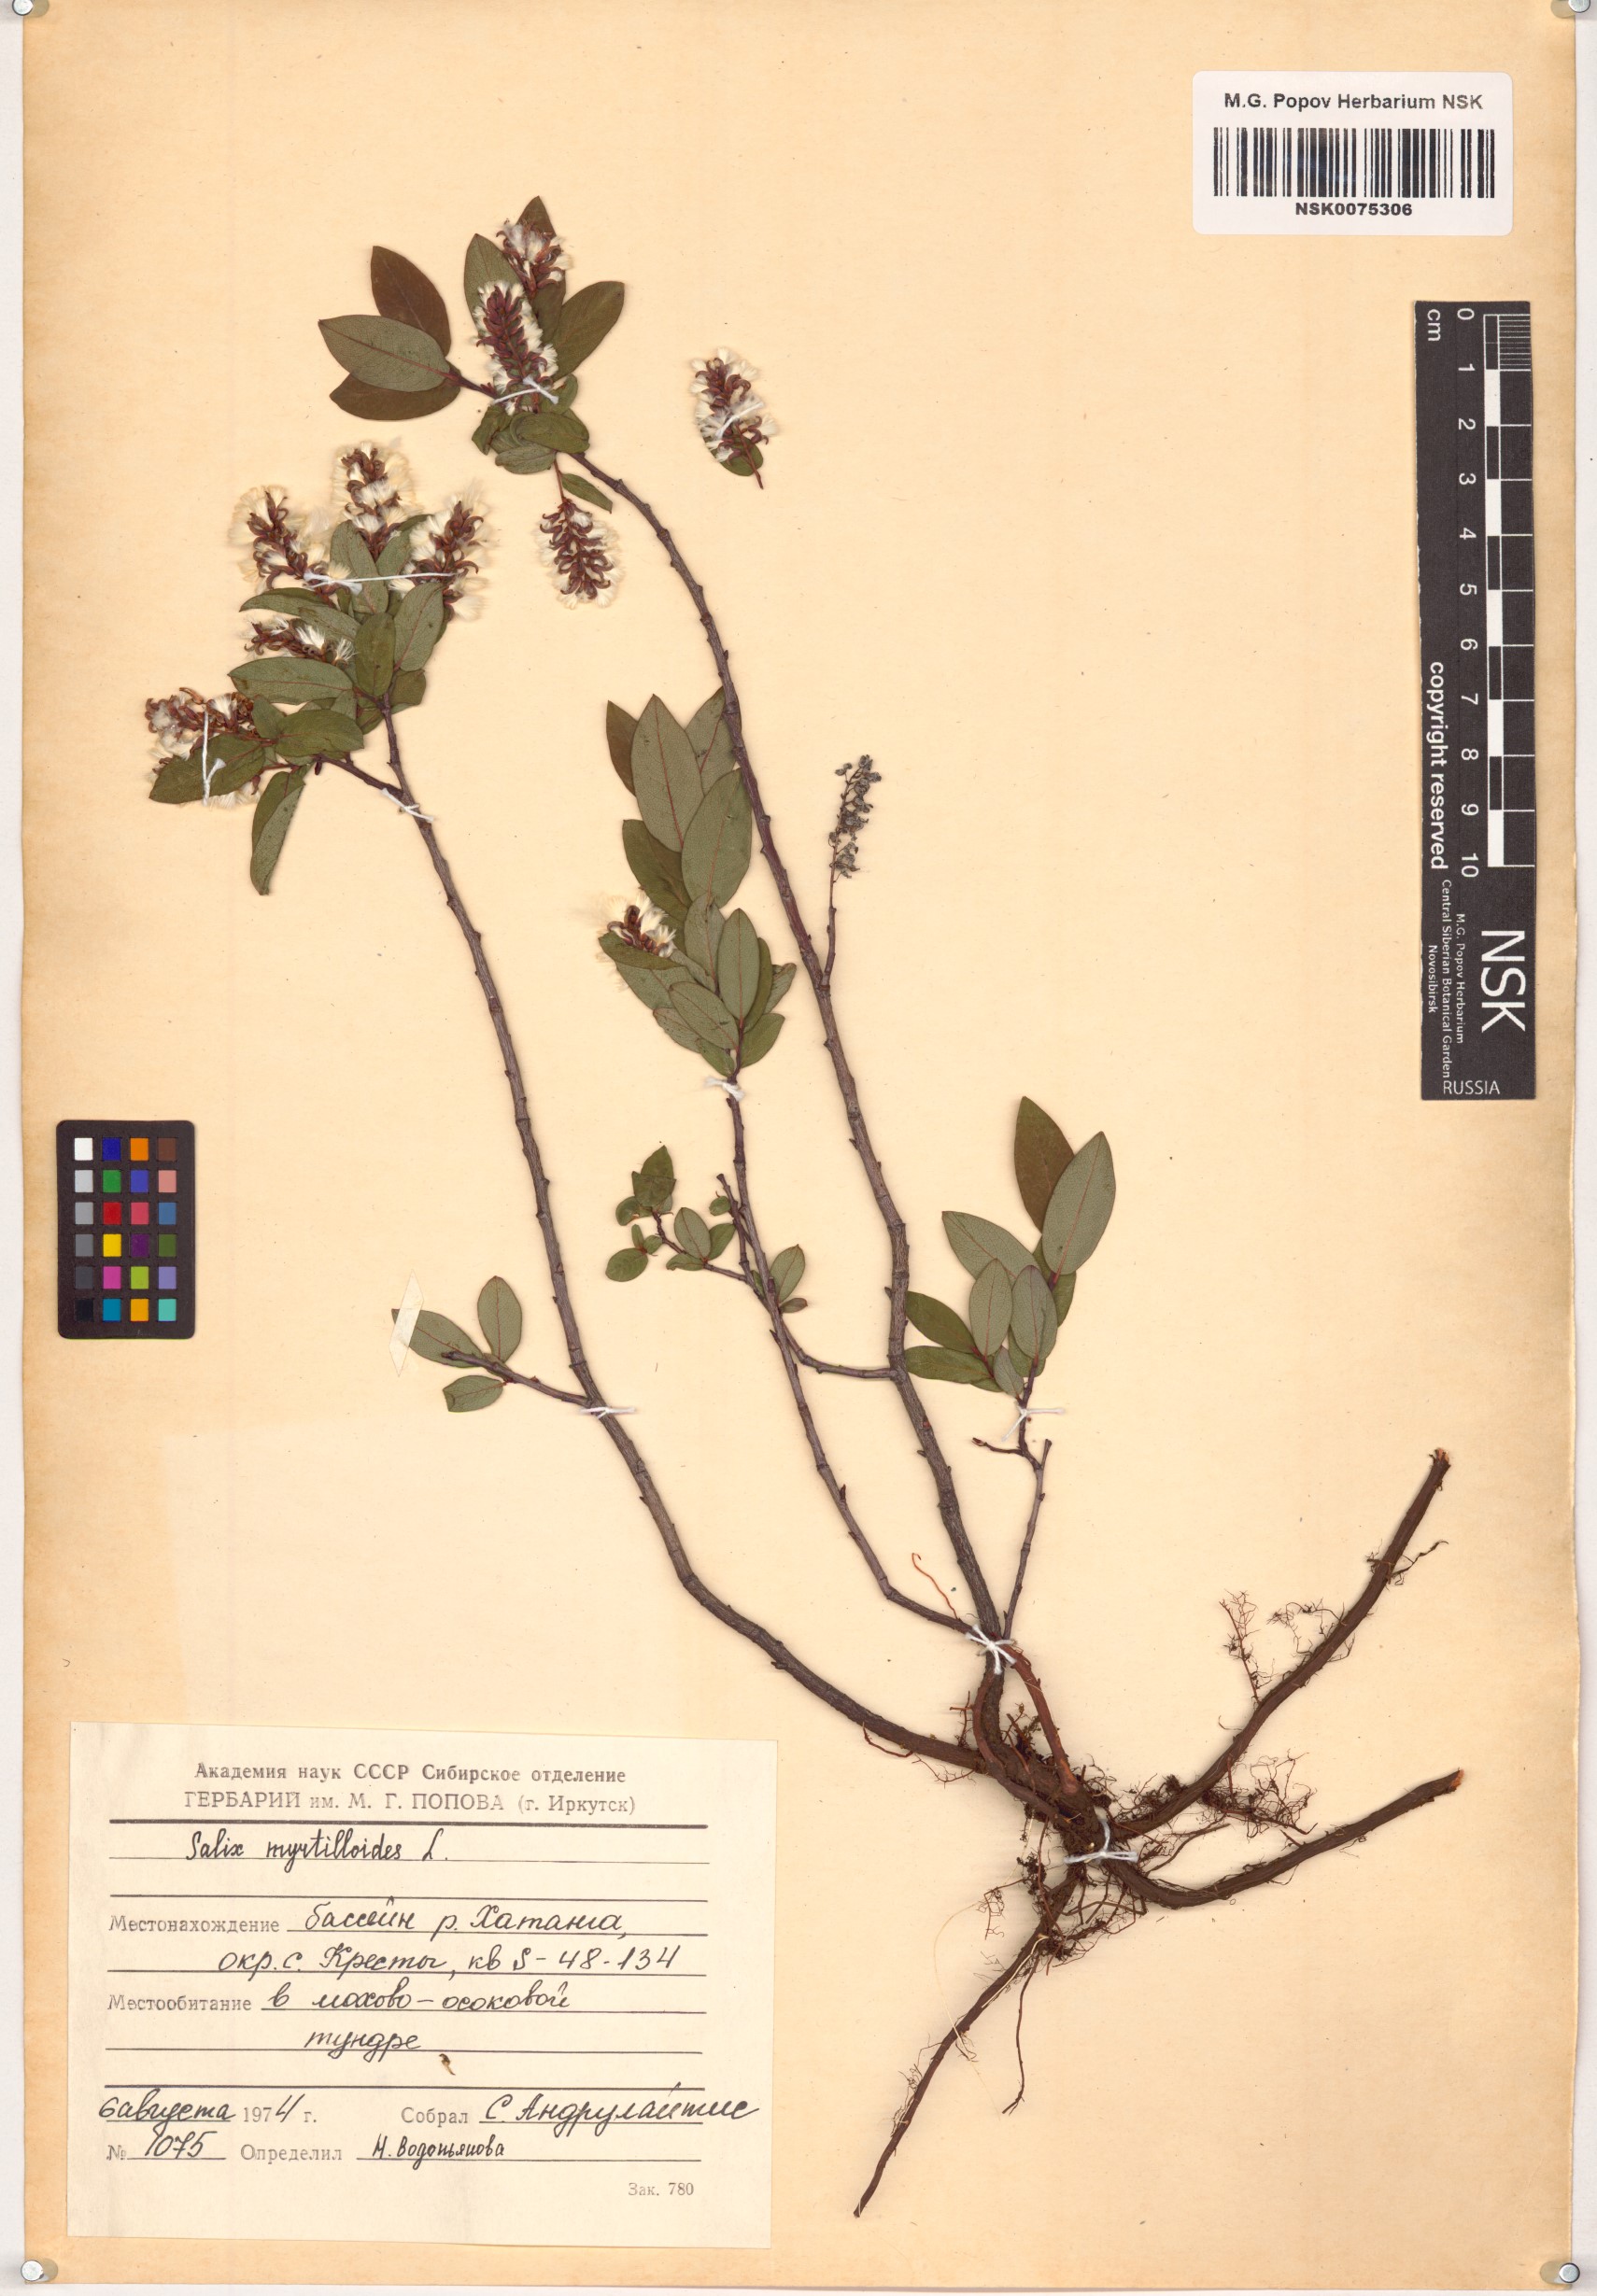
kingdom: Plantae
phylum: Tracheophyta
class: Magnoliopsida
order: Malpighiales
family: Salicaceae
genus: Salix
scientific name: Salix myrtilloides
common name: Myrtle-leaved willow
